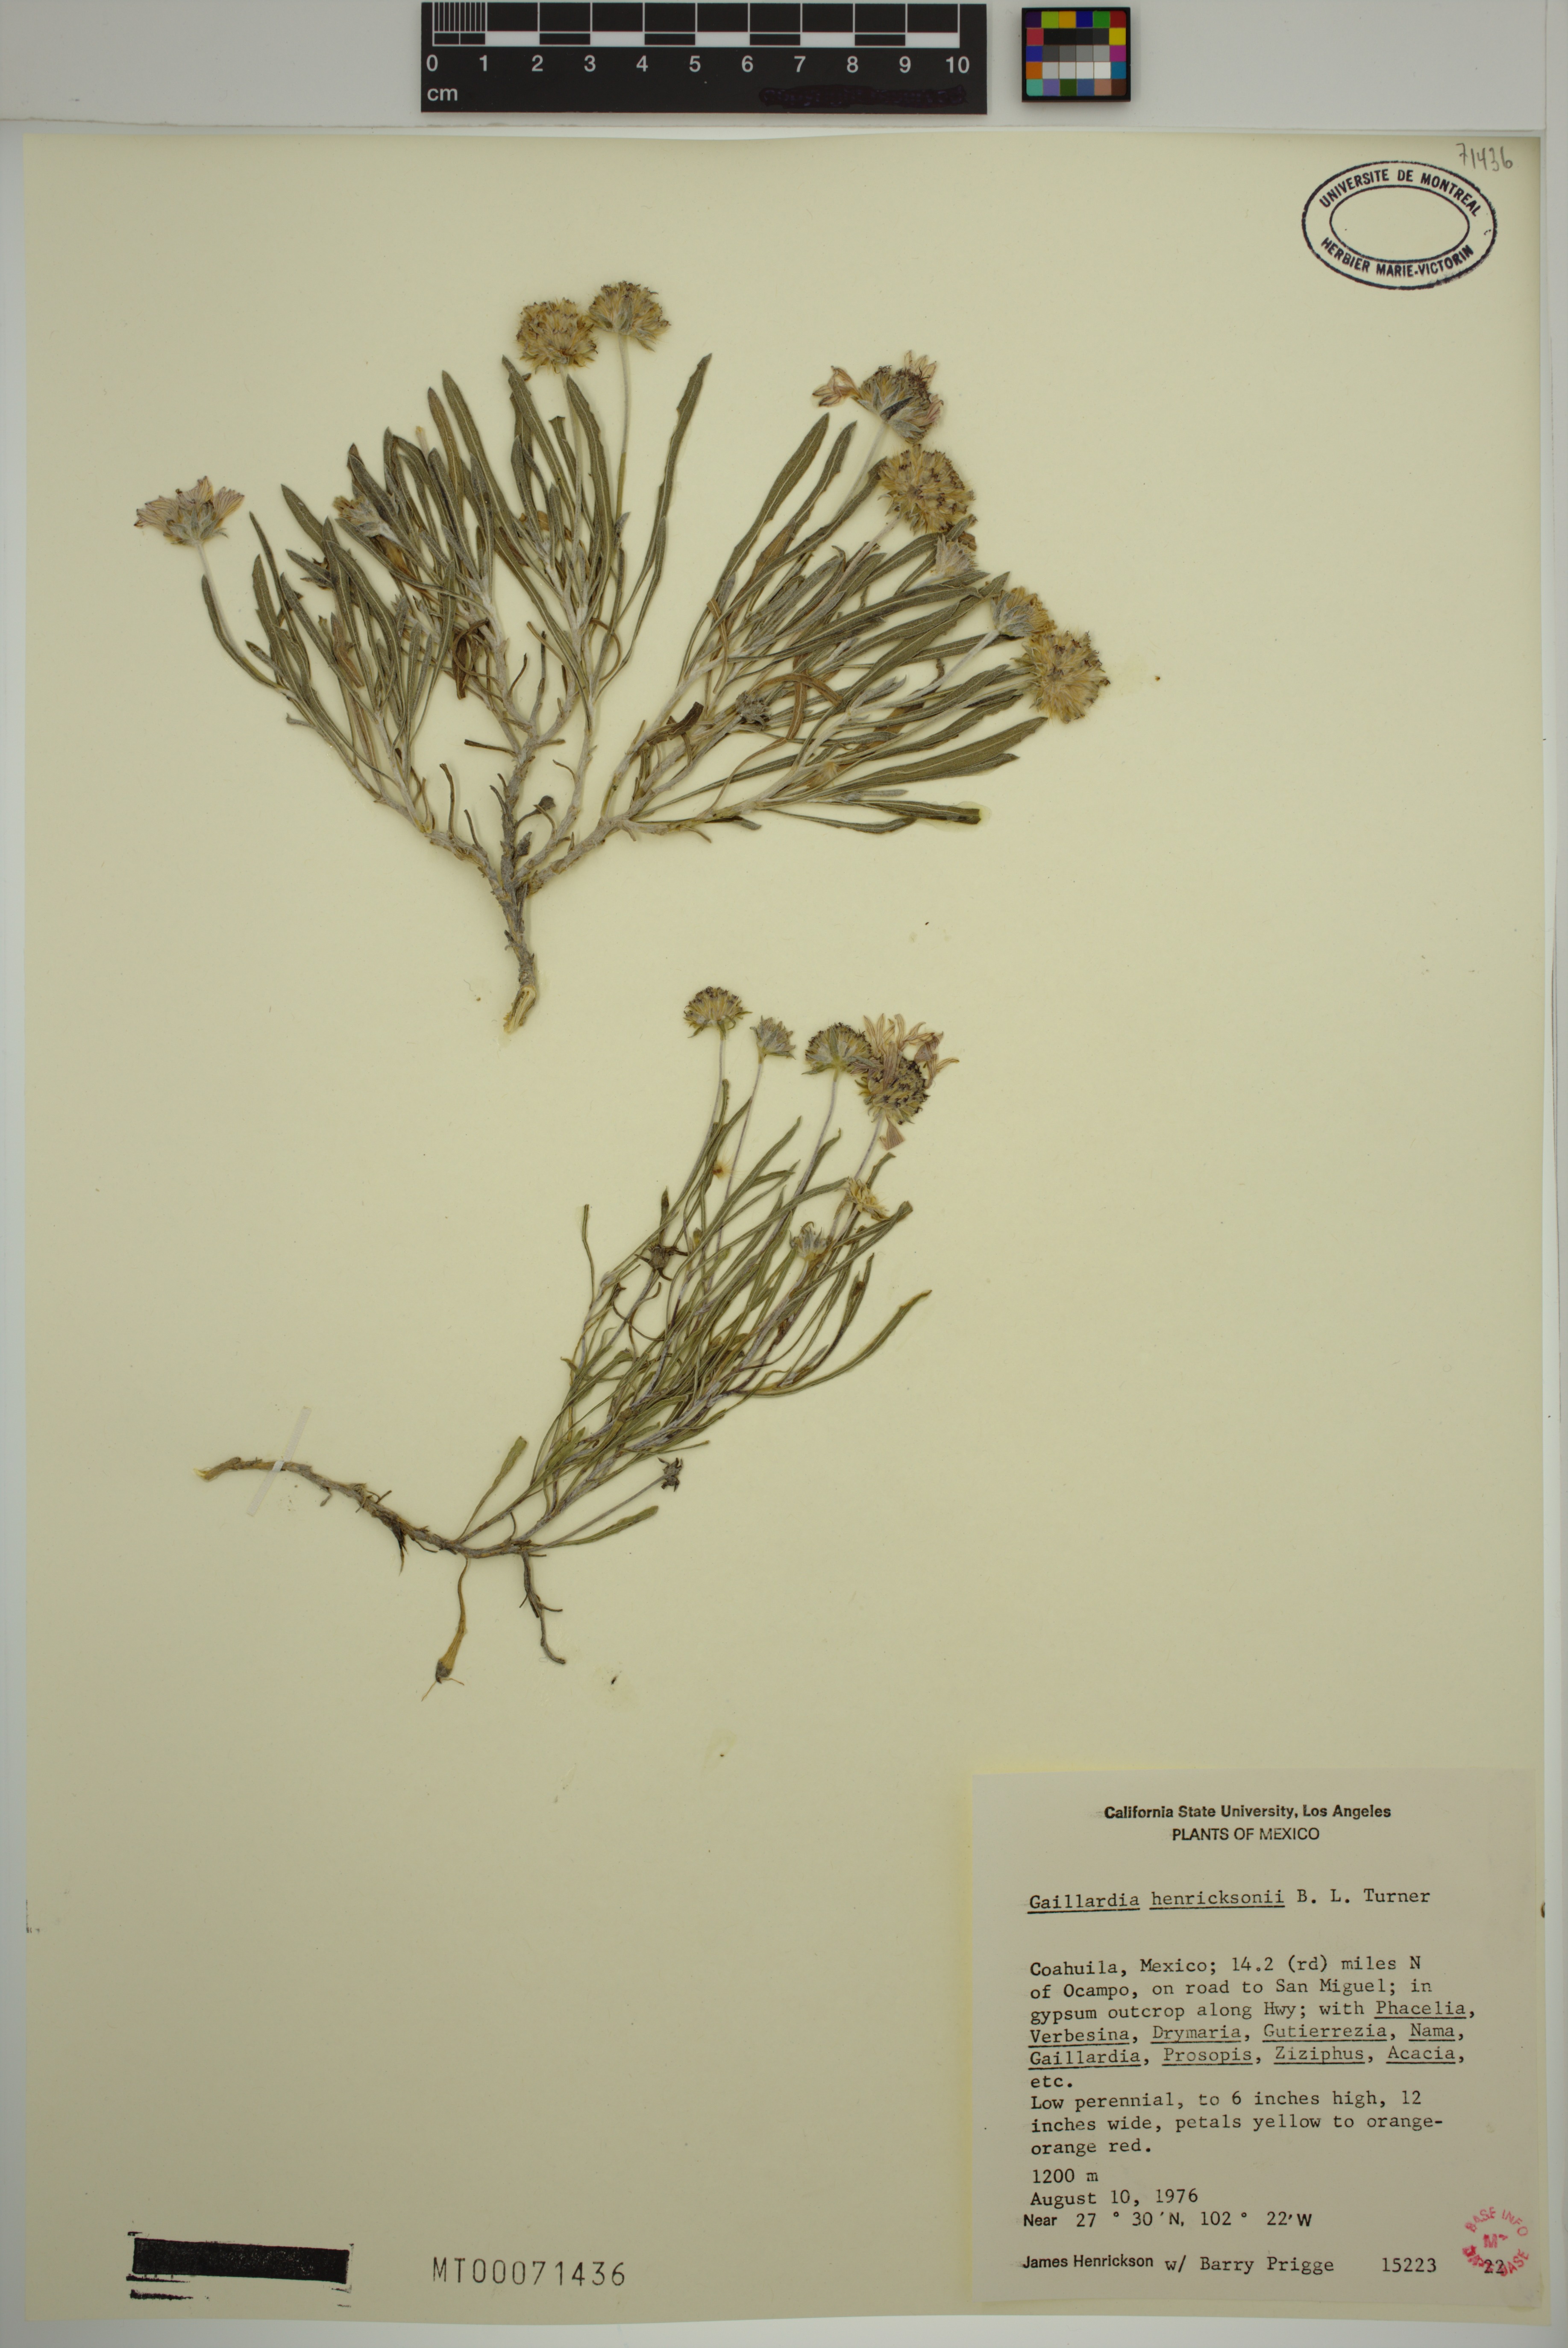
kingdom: Plantae
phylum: Tracheophyta
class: Magnoliopsida
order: Asterales
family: Asteraceae
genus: Gaillardia
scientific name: Gaillardia henricksonii
